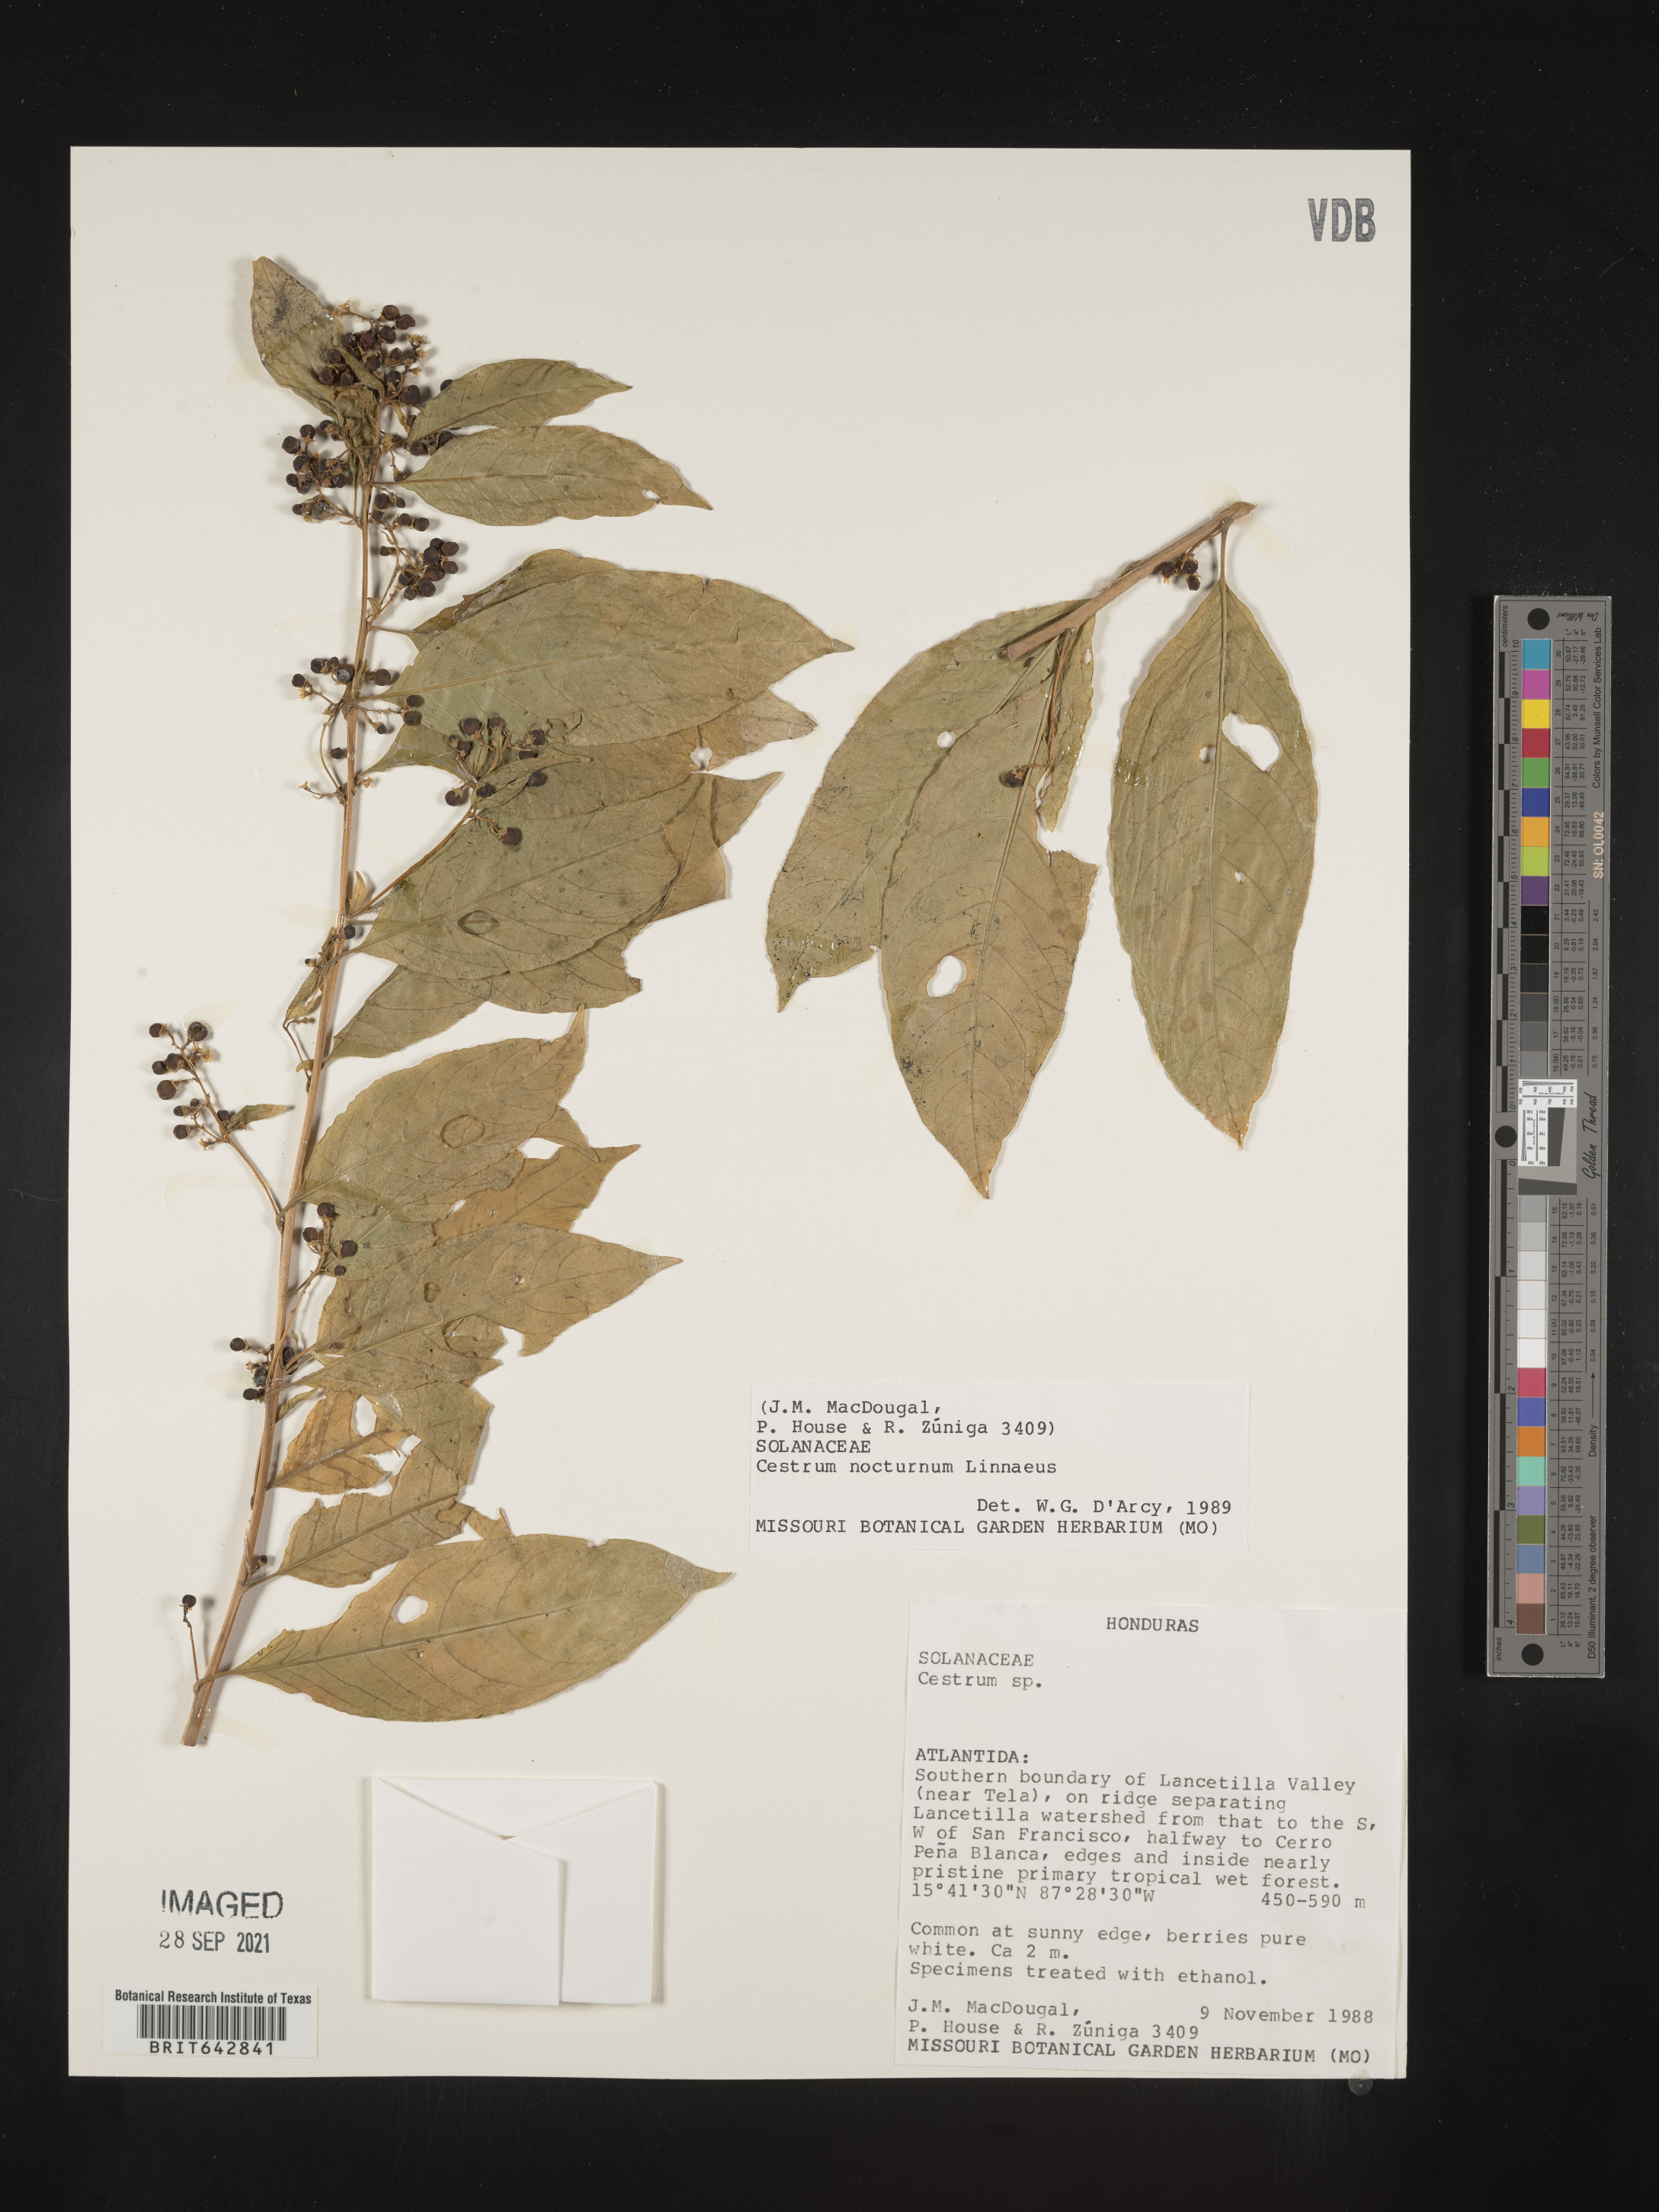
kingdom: Plantae
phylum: Tracheophyta
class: Magnoliopsida
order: Solanales
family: Solanaceae
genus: Cestrum
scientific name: Cestrum
